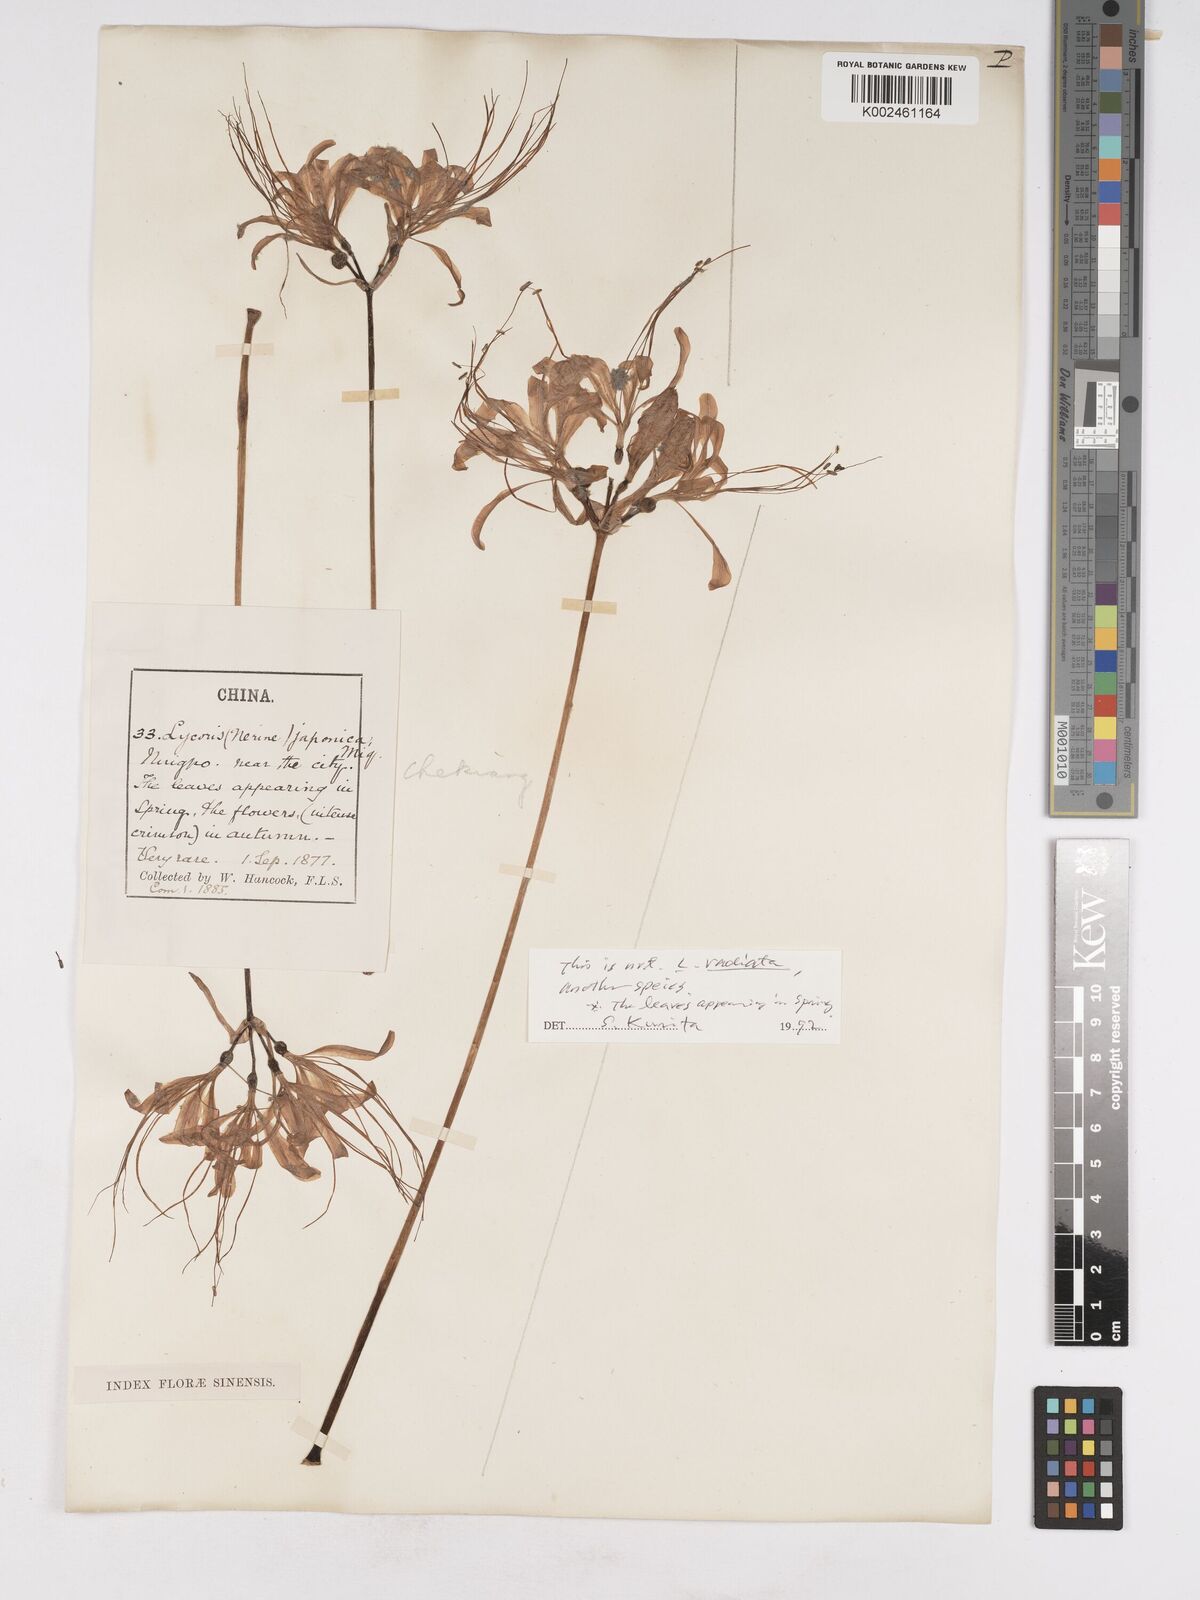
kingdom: Plantae
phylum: Tracheophyta
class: Liliopsida
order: Asparagales
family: Amaryllidaceae
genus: Lycoris
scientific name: Lycoris radiata
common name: Red spider lily
